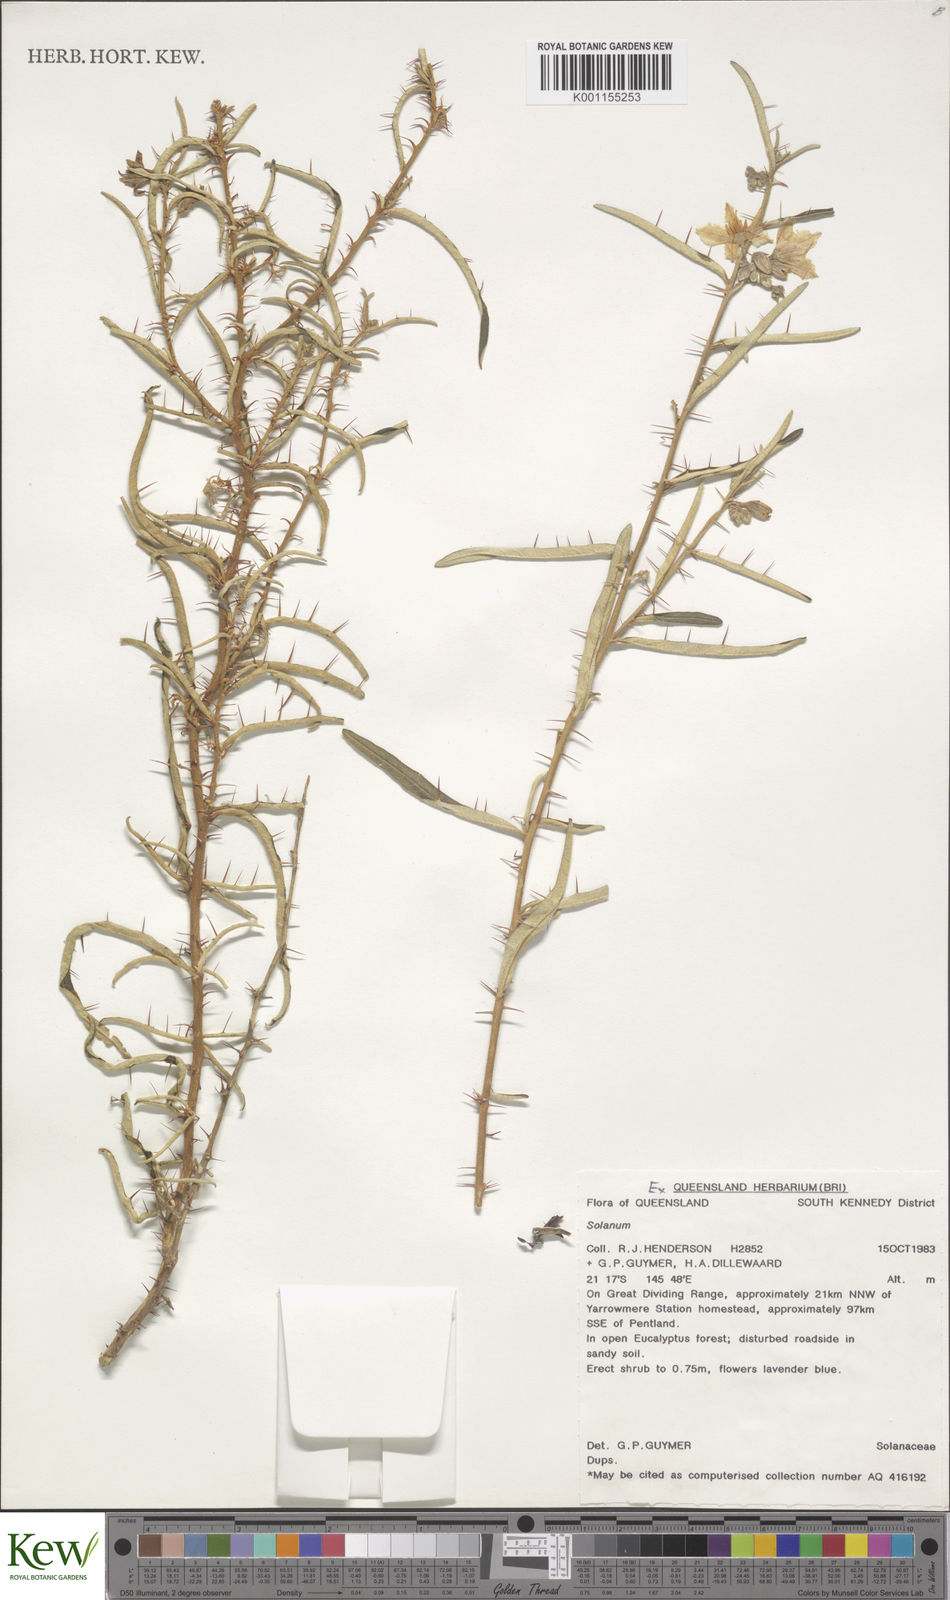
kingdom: Plantae
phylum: Tracheophyta
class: Magnoliopsida
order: Solanales
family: Solanaceae
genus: Solanum
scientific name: Solanum ferocissimum
